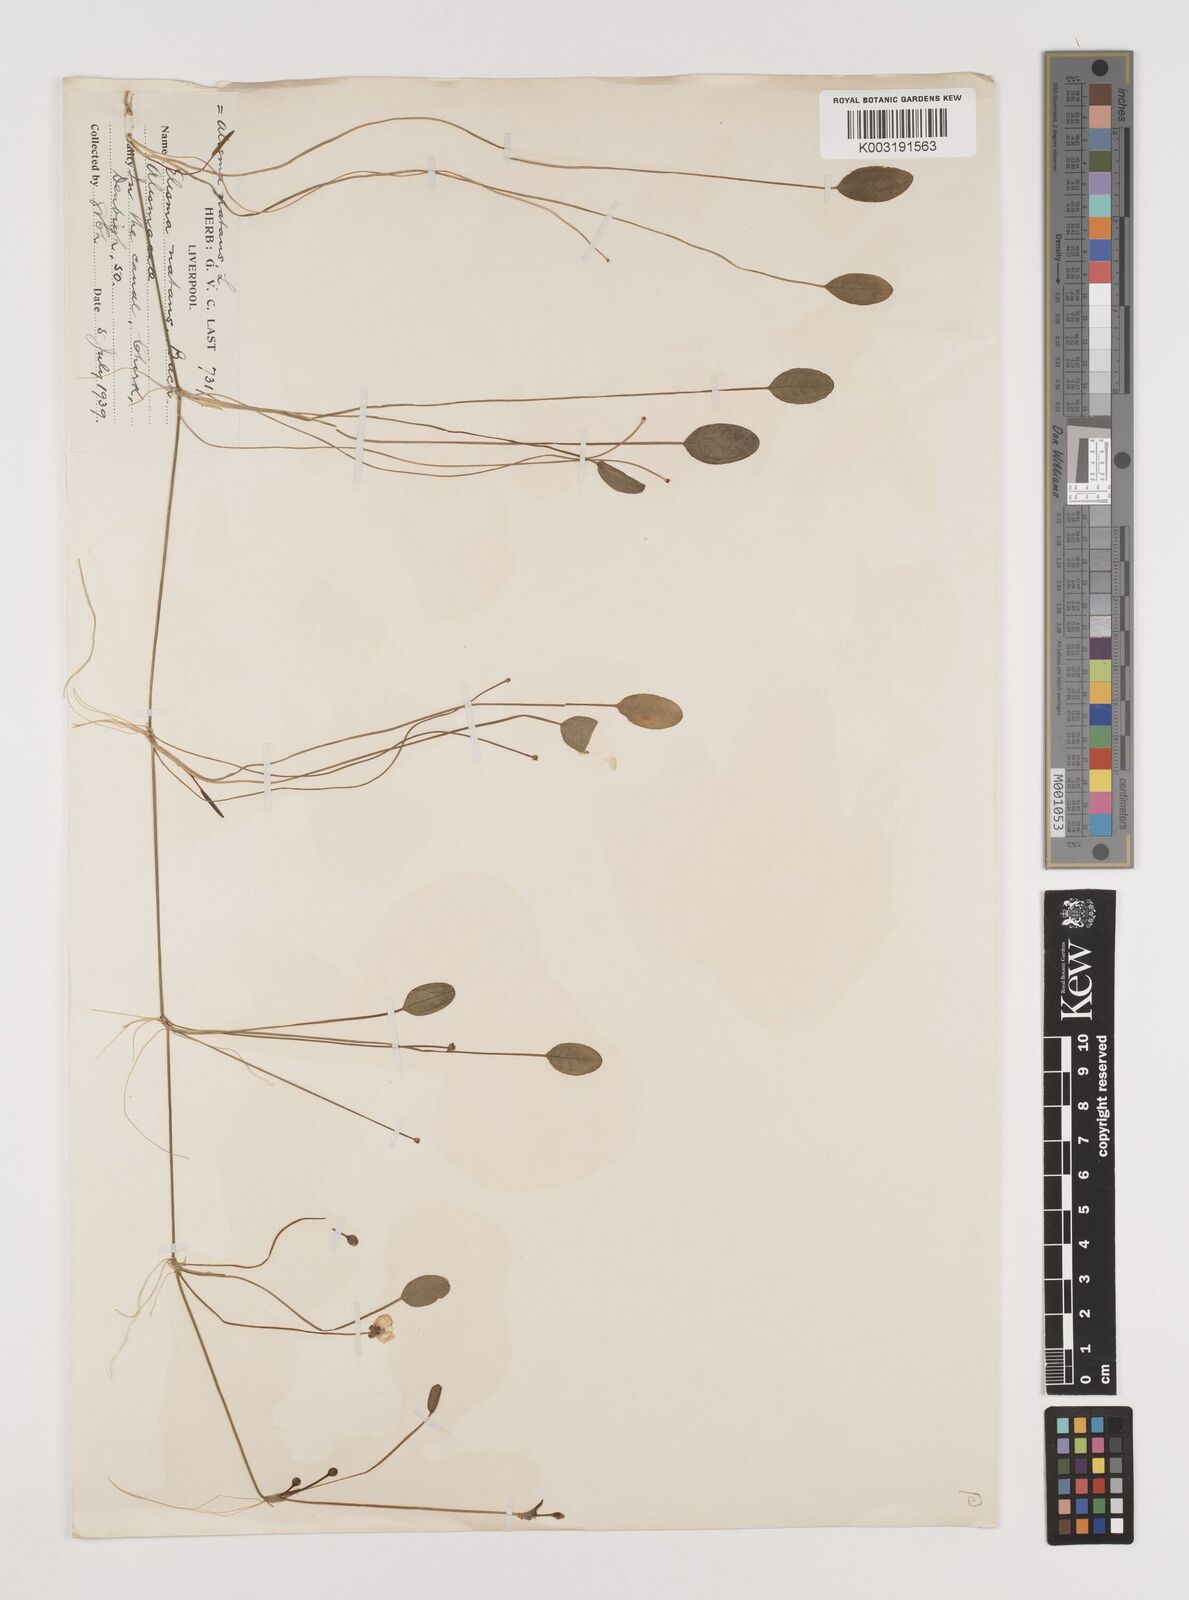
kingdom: Plantae
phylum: Tracheophyta
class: Liliopsida
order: Alismatales
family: Alismataceae
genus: Luronium
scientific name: Luronium natans
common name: Floating water-plantain
